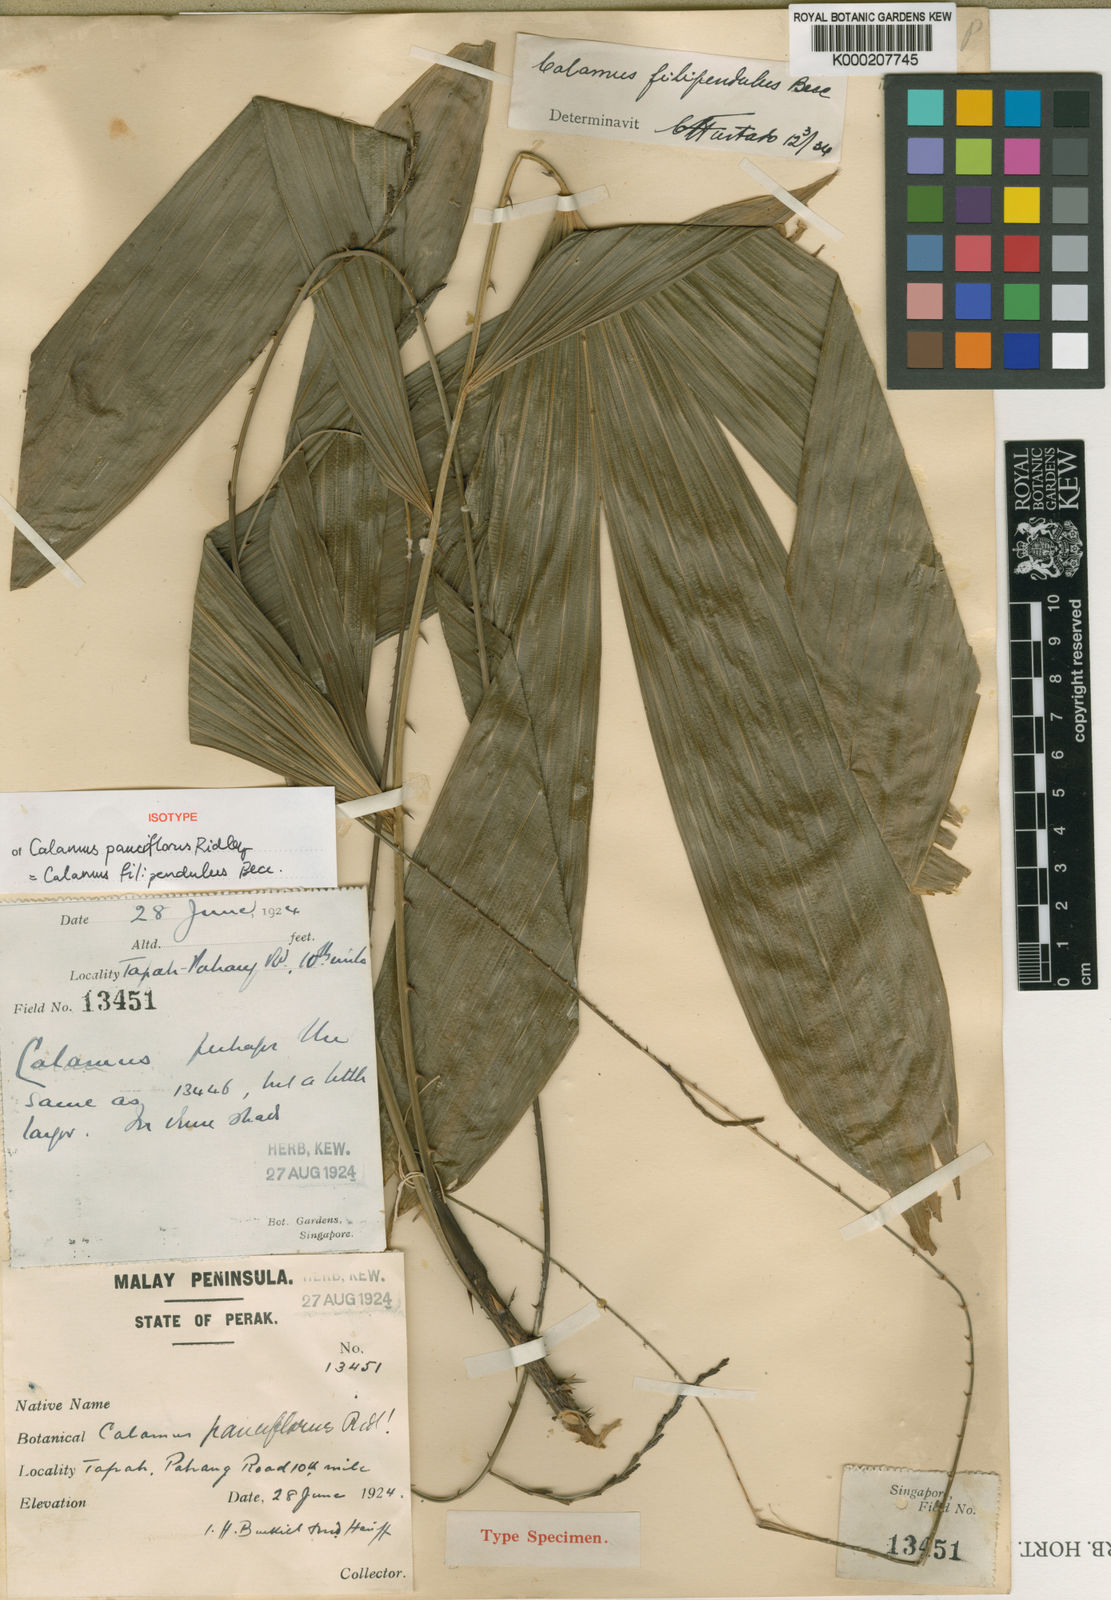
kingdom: Plantae
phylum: Tracheophyta
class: Liliopsida
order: Arecales
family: Arecaceae
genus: Calamus
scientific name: Calamus filipendulus
